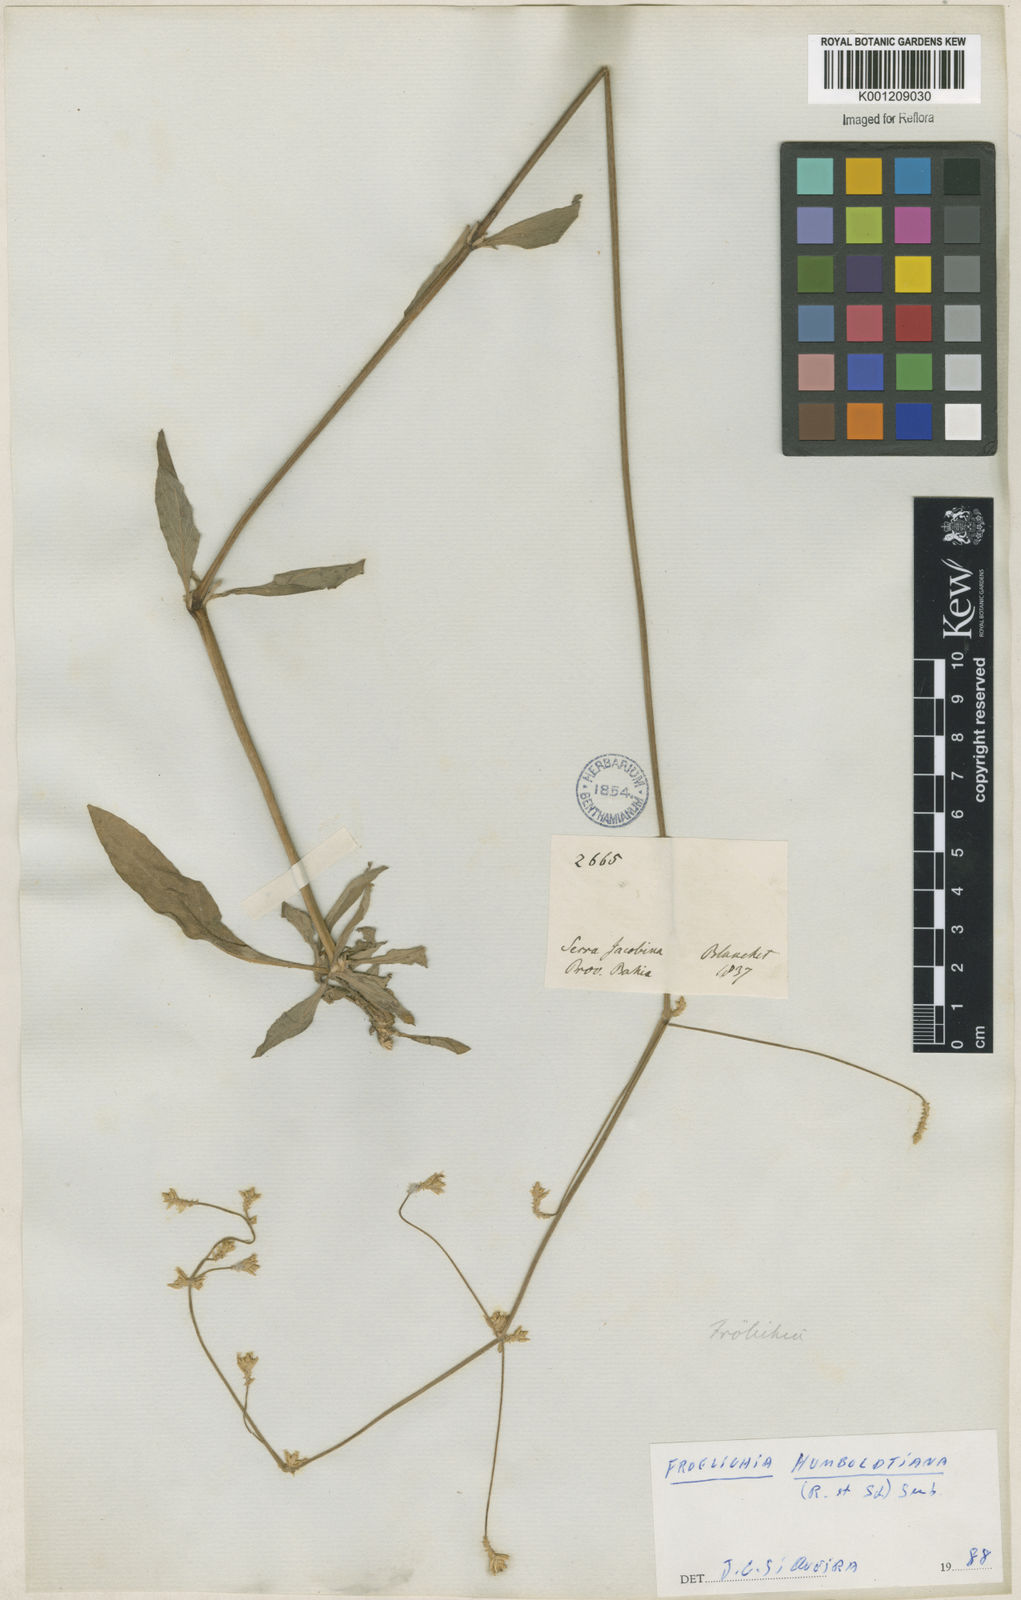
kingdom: Plantae
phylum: Tracheophyta
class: Magnoliopsida
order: Caryophyllales
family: Amaranthaceae
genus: Froelichia
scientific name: Froelichia humboldtiana
